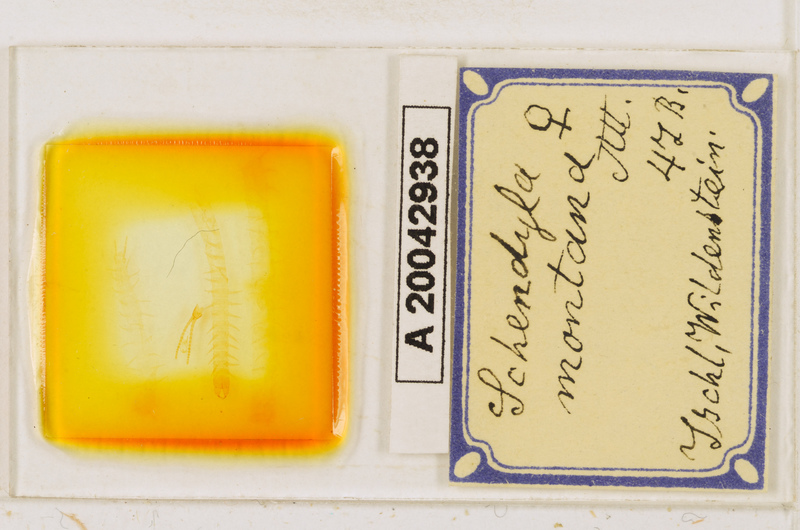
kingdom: Animalia
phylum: Arthropoda
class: Chilopoda
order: Geophilomorpha
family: Schendylidae
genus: Schendyla
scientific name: Schendyla montana
